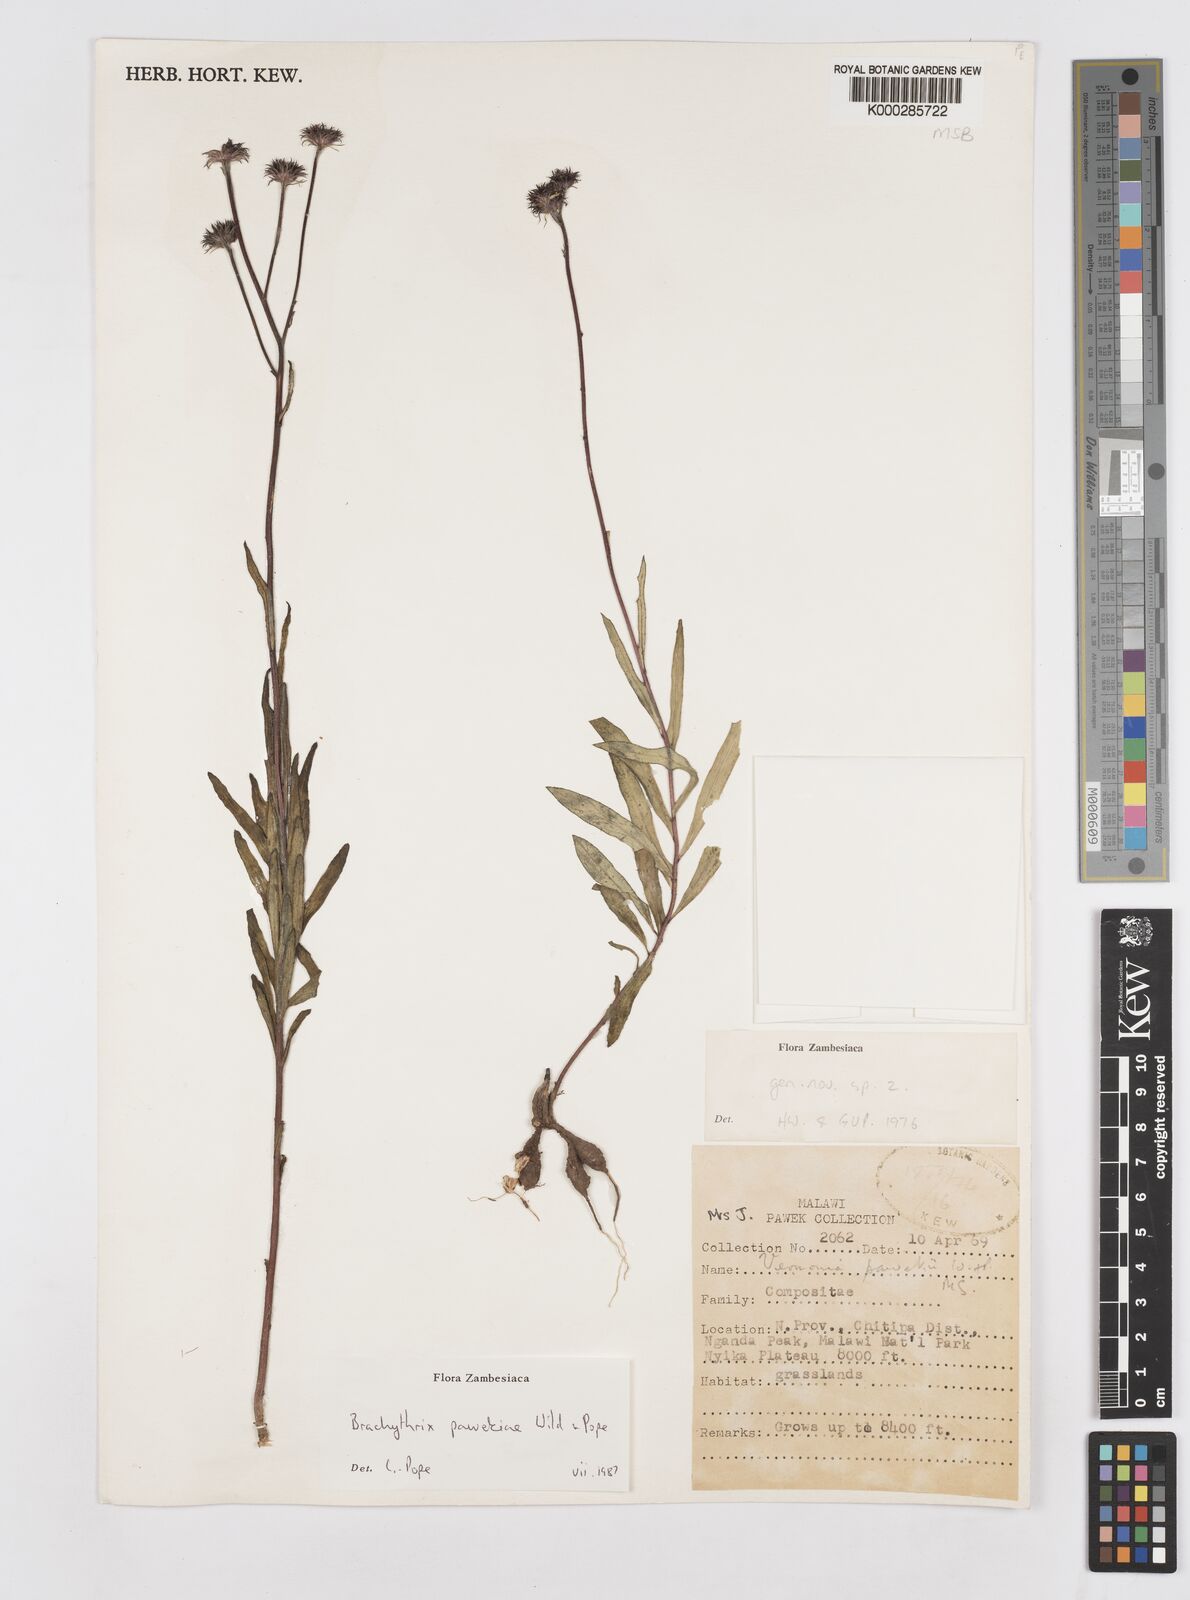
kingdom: Plantae
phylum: Tracheophyta
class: Magnoliopsida
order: Asterales
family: Asteraceae
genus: Brachythrix
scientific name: Brachythrix pawekiae
